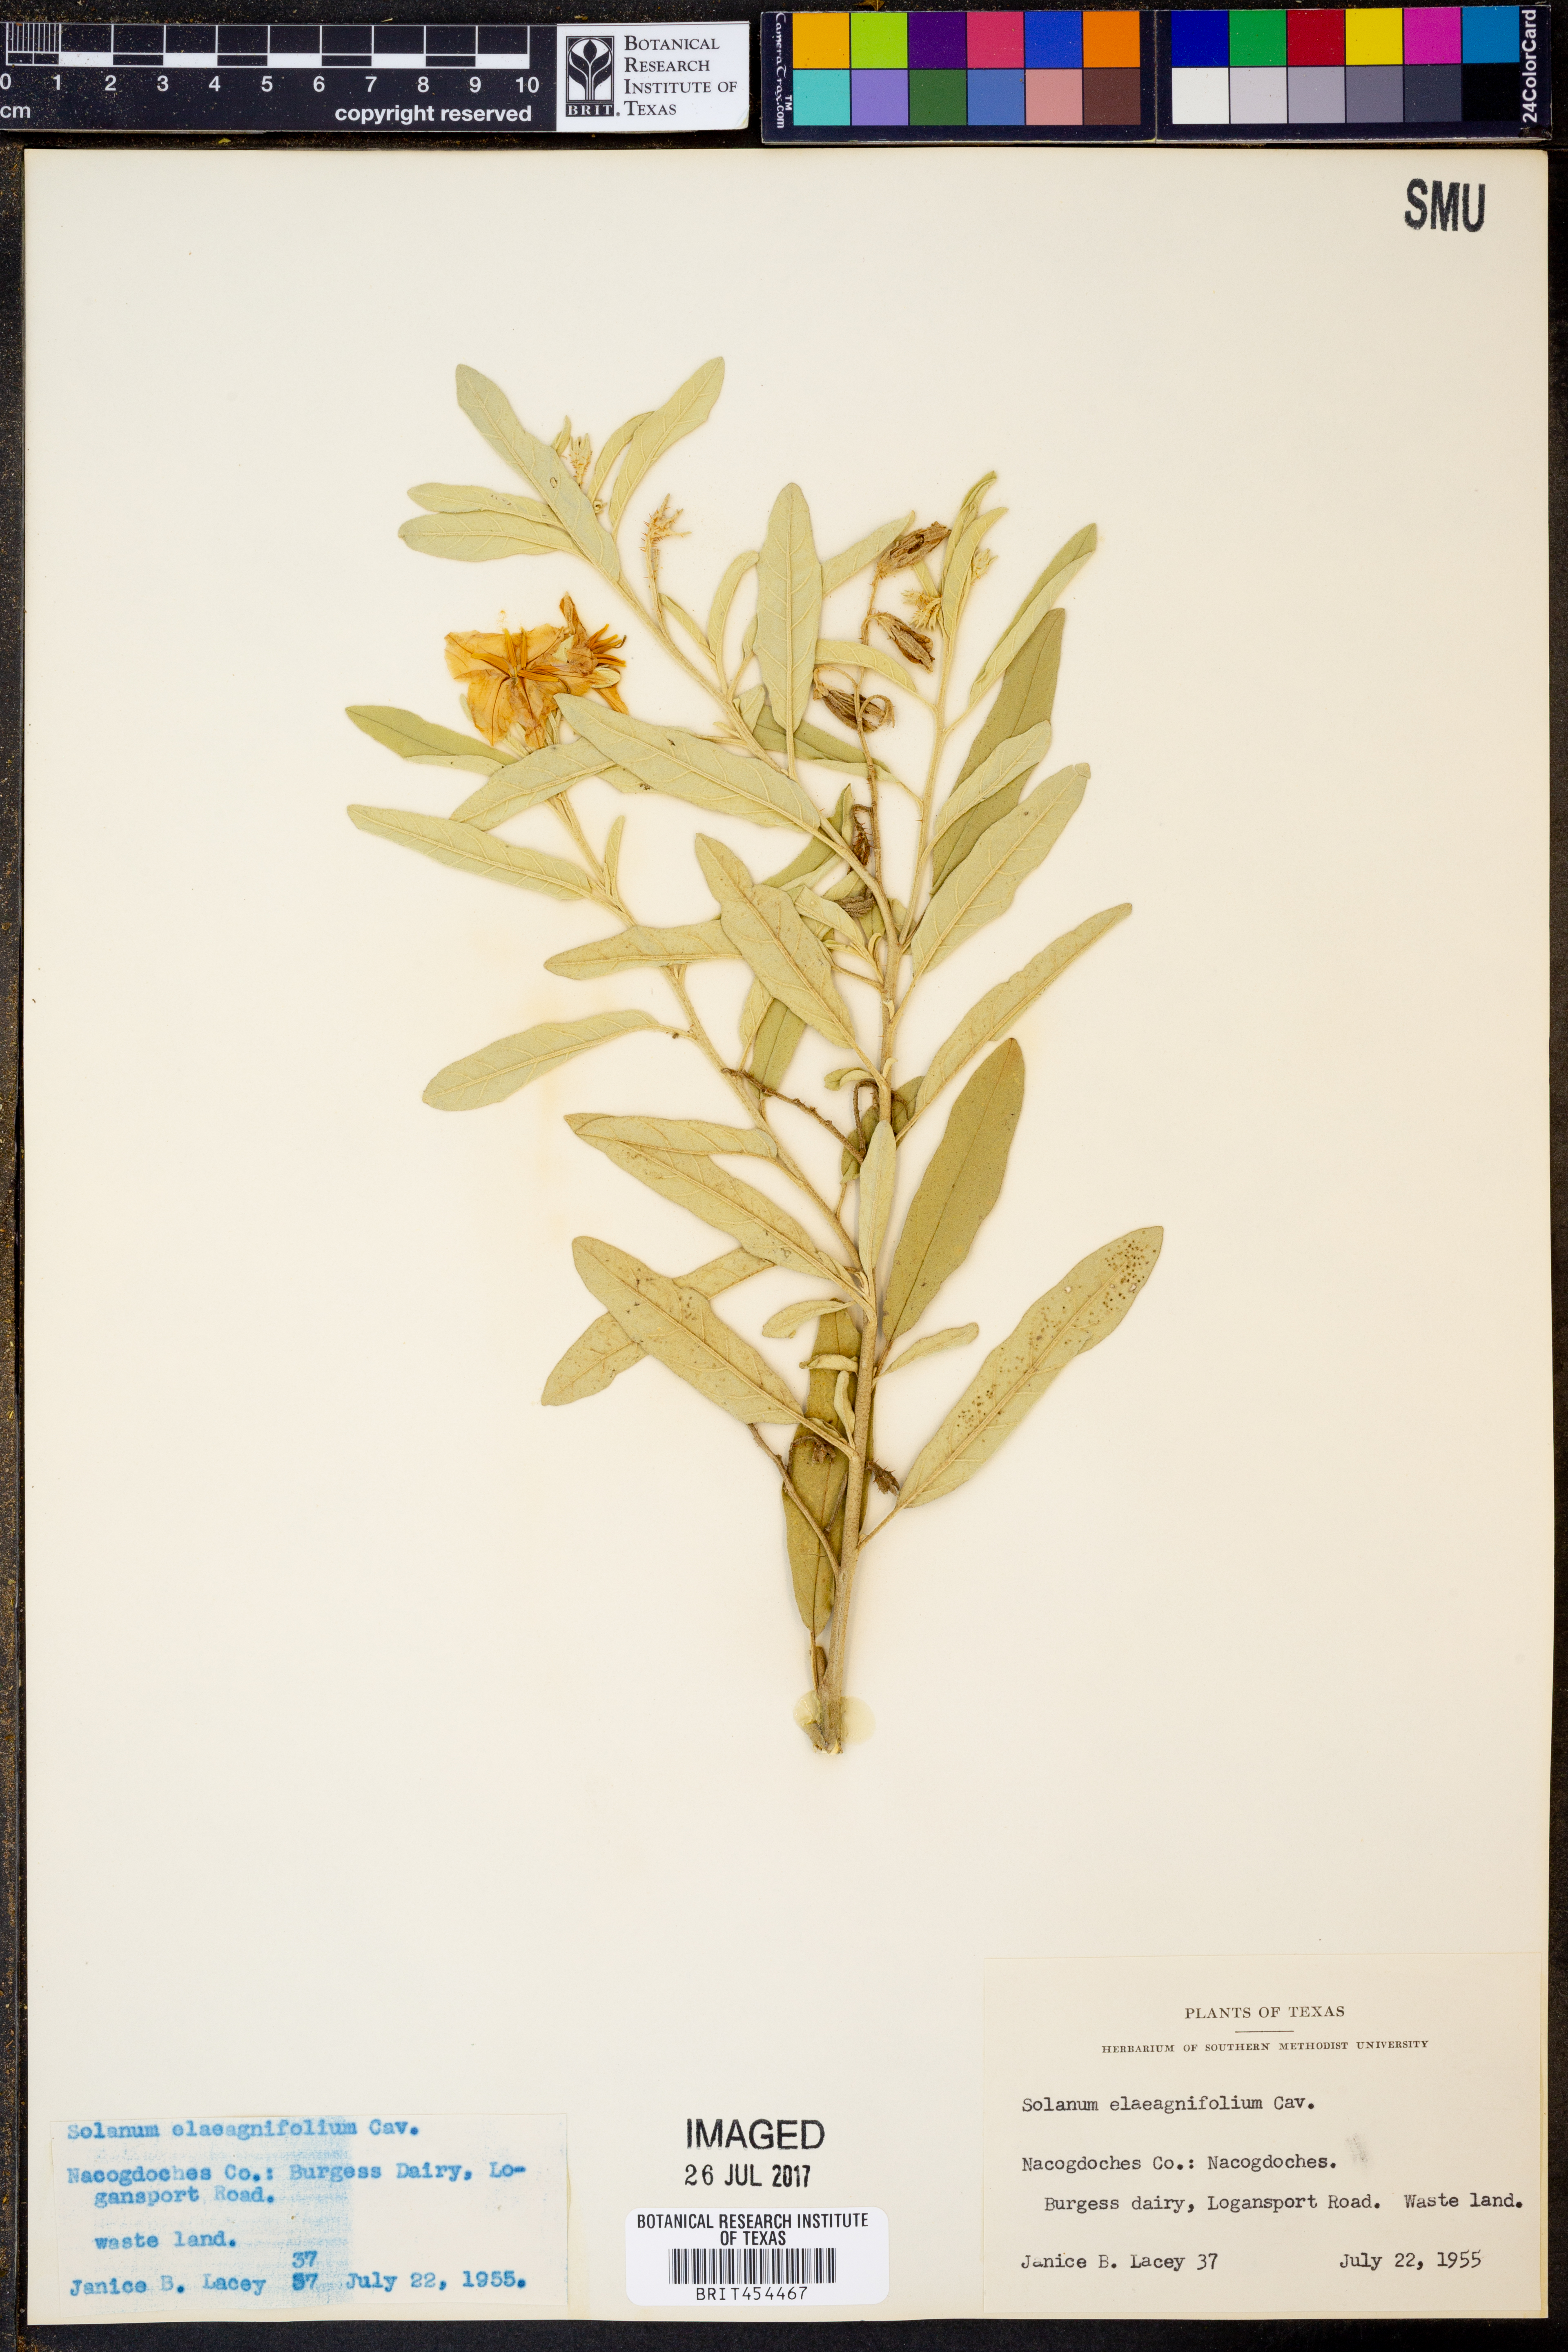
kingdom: Plantae
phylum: Tracheophyta
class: Magnoliopsida
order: Solanales
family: Solanaceae
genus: Solanum
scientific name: Solanum elaeagnifolium
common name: Silverleaf nightshade
